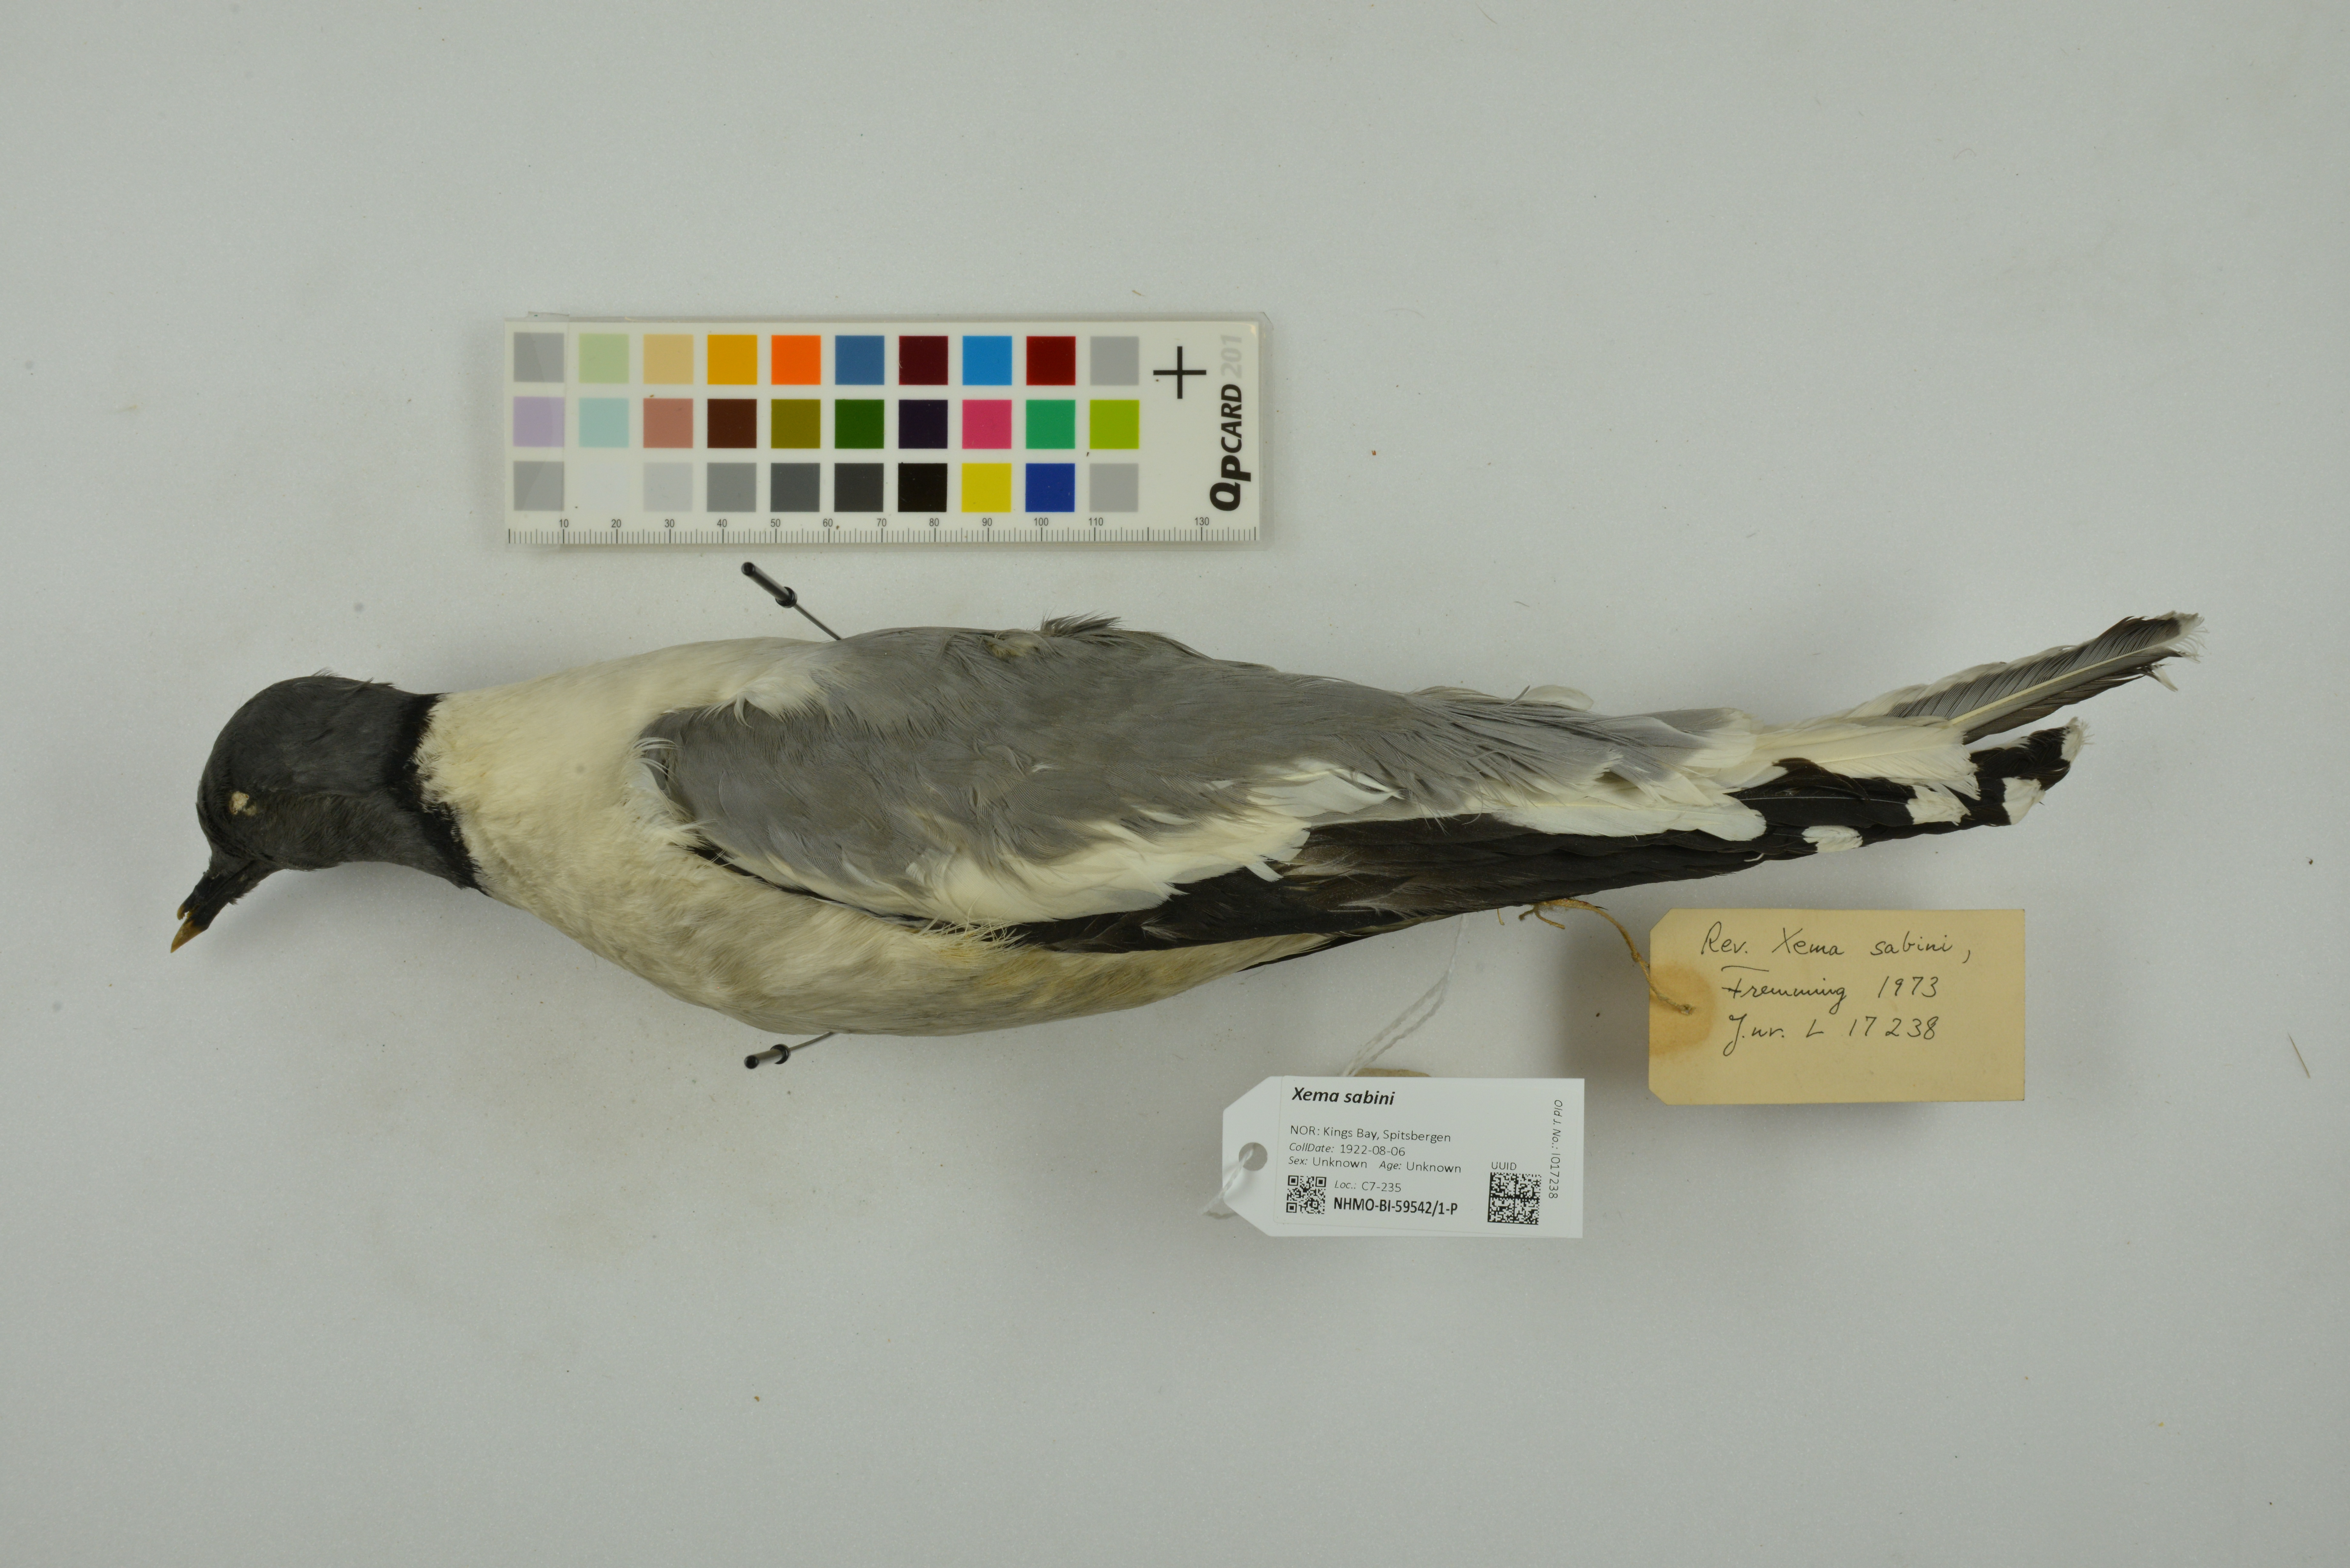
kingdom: Animalia
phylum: Chordata
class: Aves
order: Charadriiformes
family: Laridae
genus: Xema
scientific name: Xema sabini
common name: Sabine's gull
